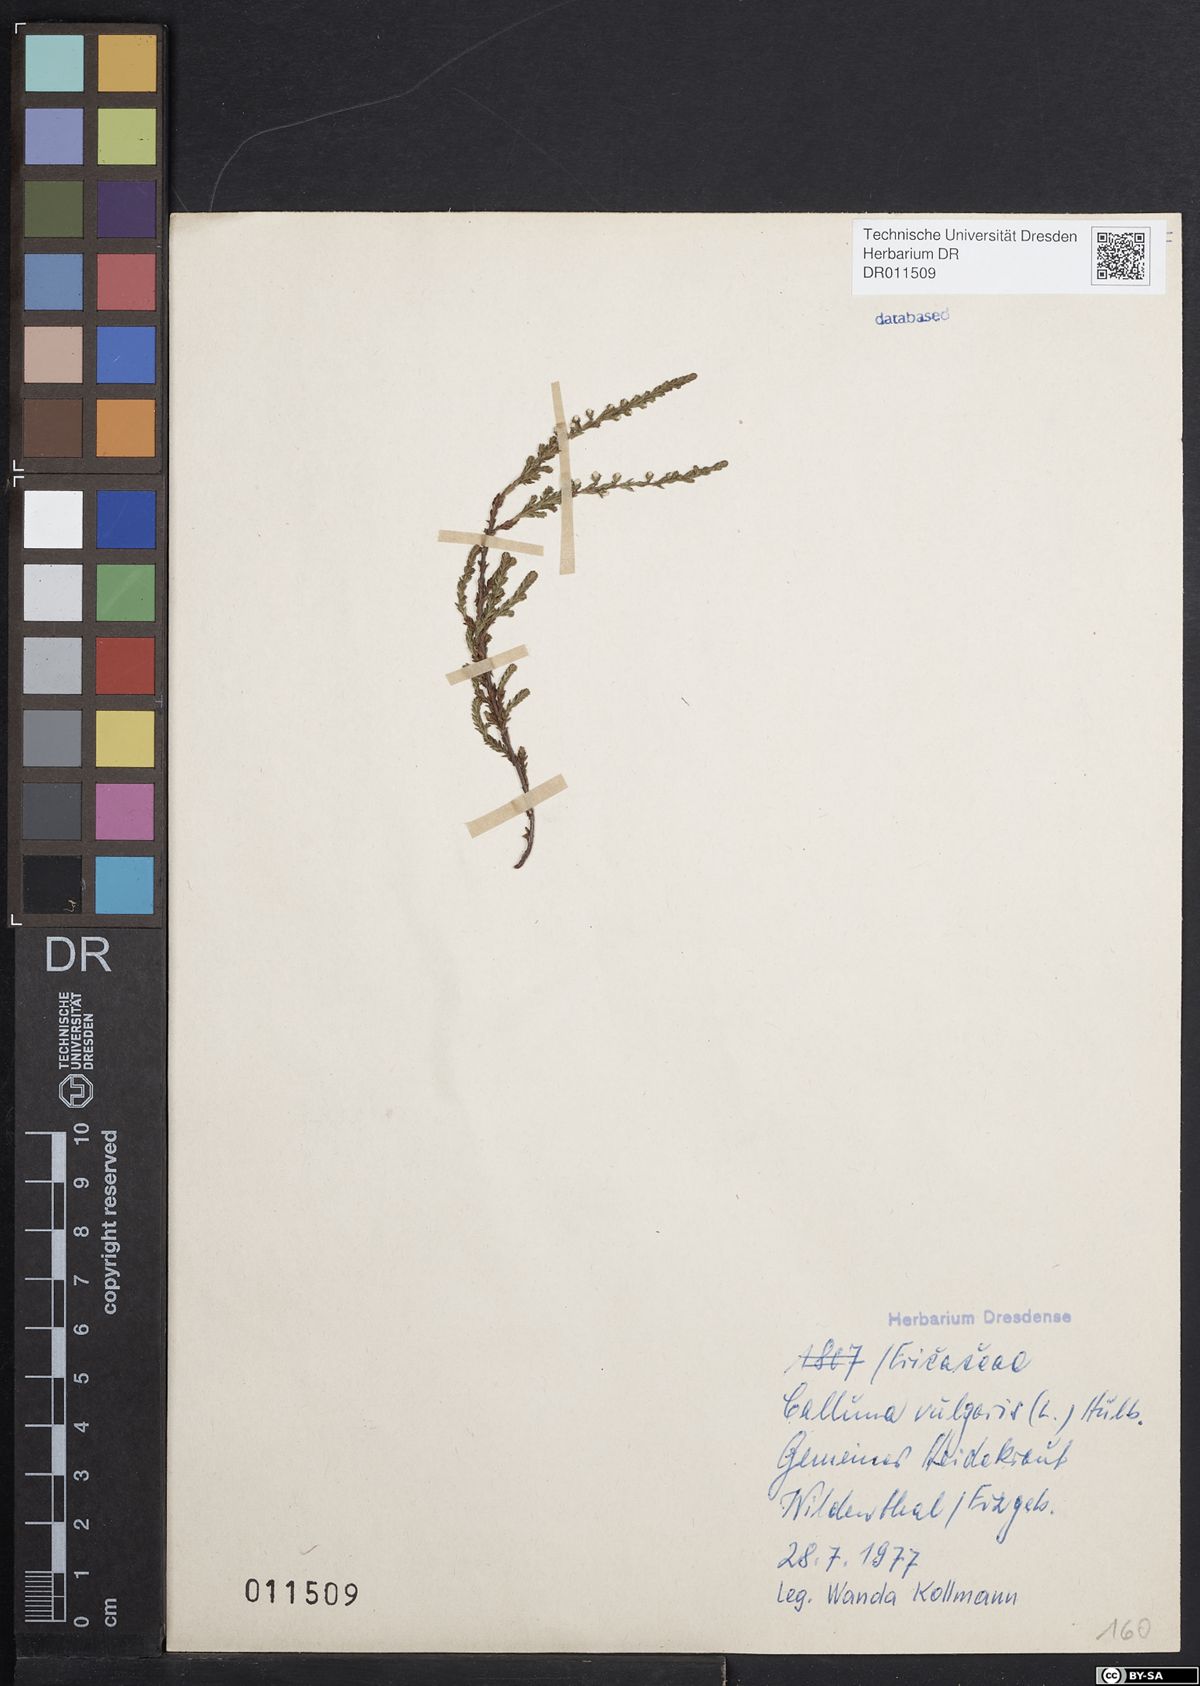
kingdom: Plantae
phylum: Tracheophyta
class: Magnoliopsida
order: Ericales
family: Ericaceae
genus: Calluna
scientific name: Calluna vulgaris
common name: Heather
